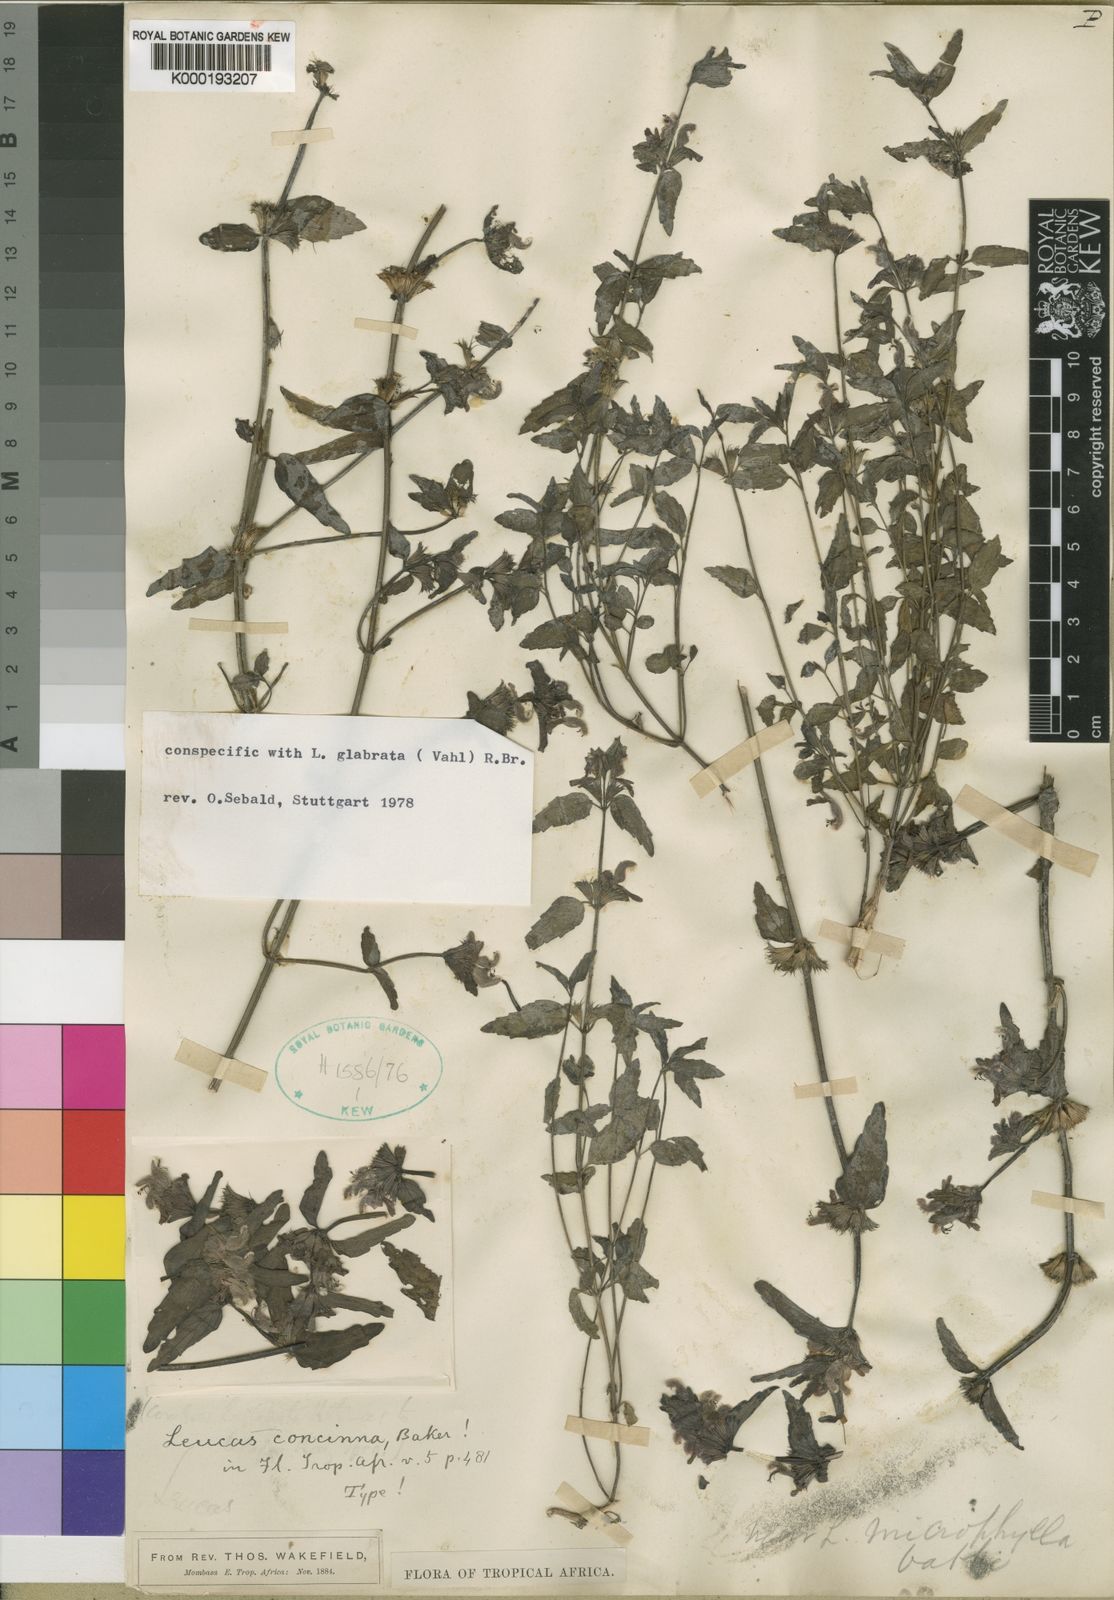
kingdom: Plantae
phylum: Tracheophyta
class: Magnoliopsida
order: Lamiales
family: Lamiaceae
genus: Leucas
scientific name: Leucas glabrata
